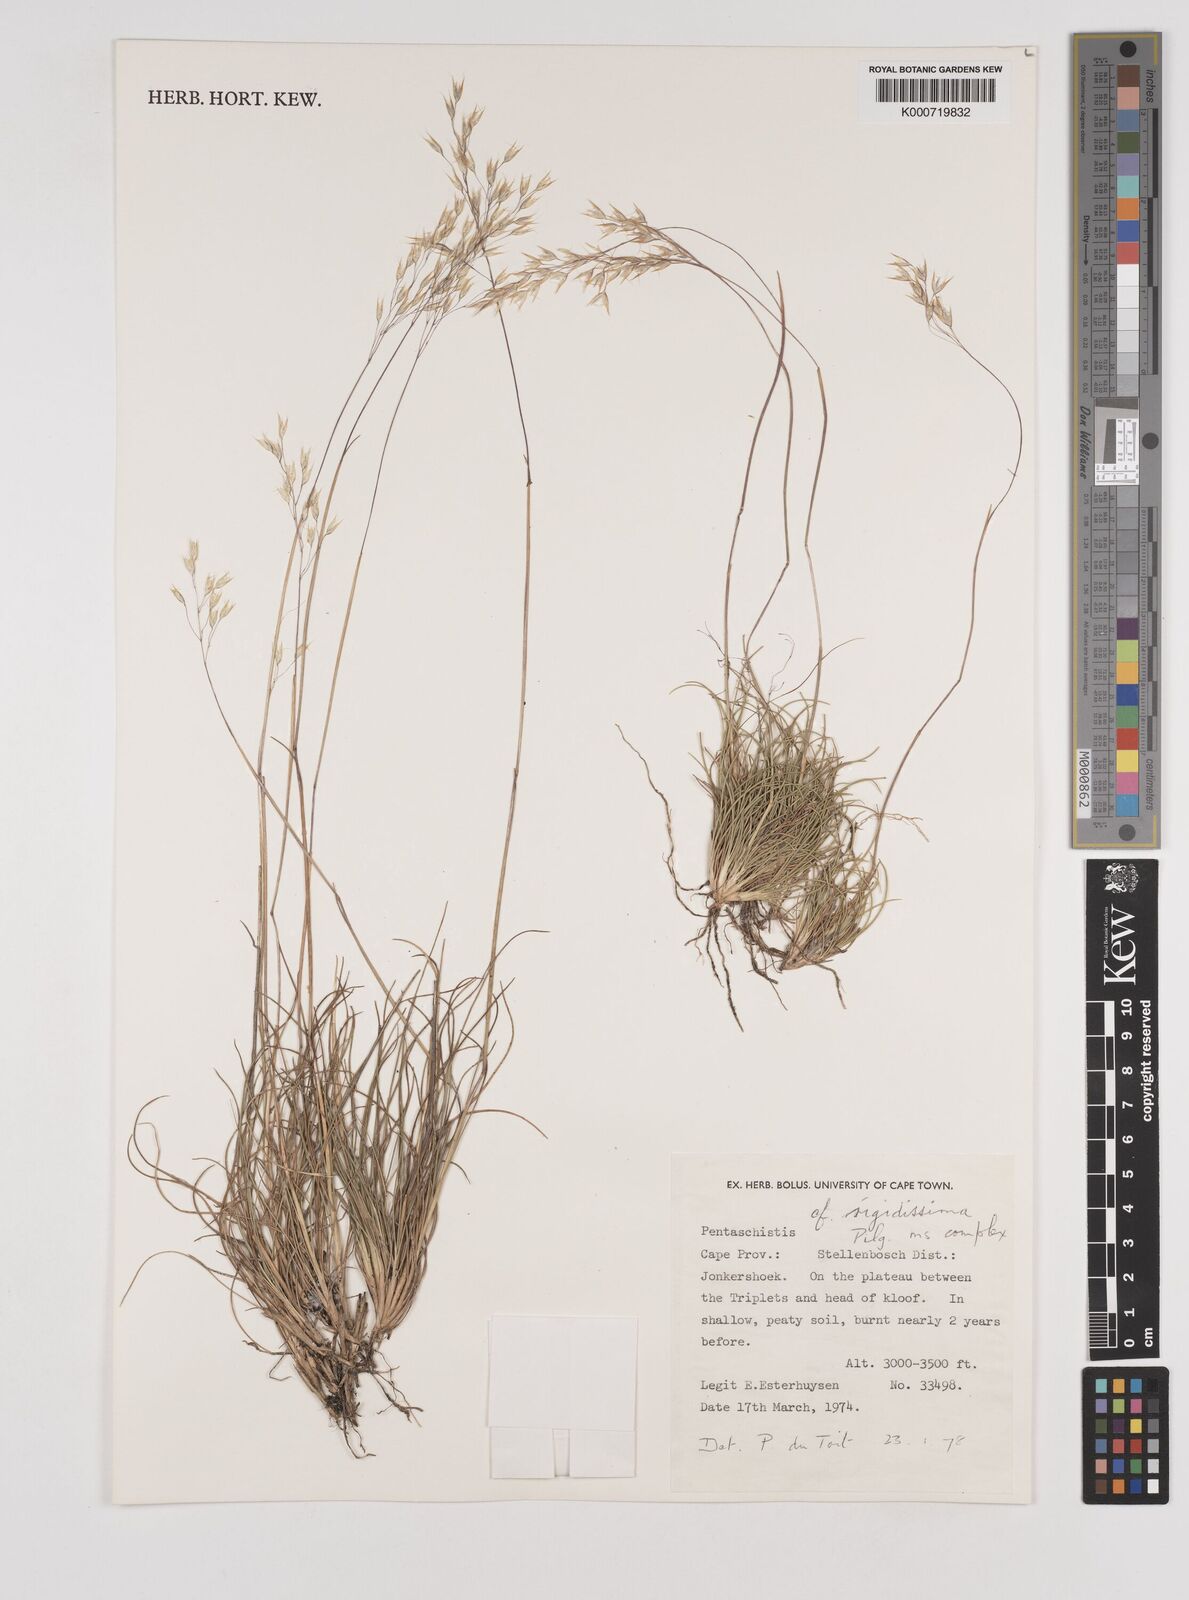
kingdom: Plantae
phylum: Tracheophyta
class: Liliopsida
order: Poales
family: Poaceae
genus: Pentaschistis
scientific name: Pentaschistis
